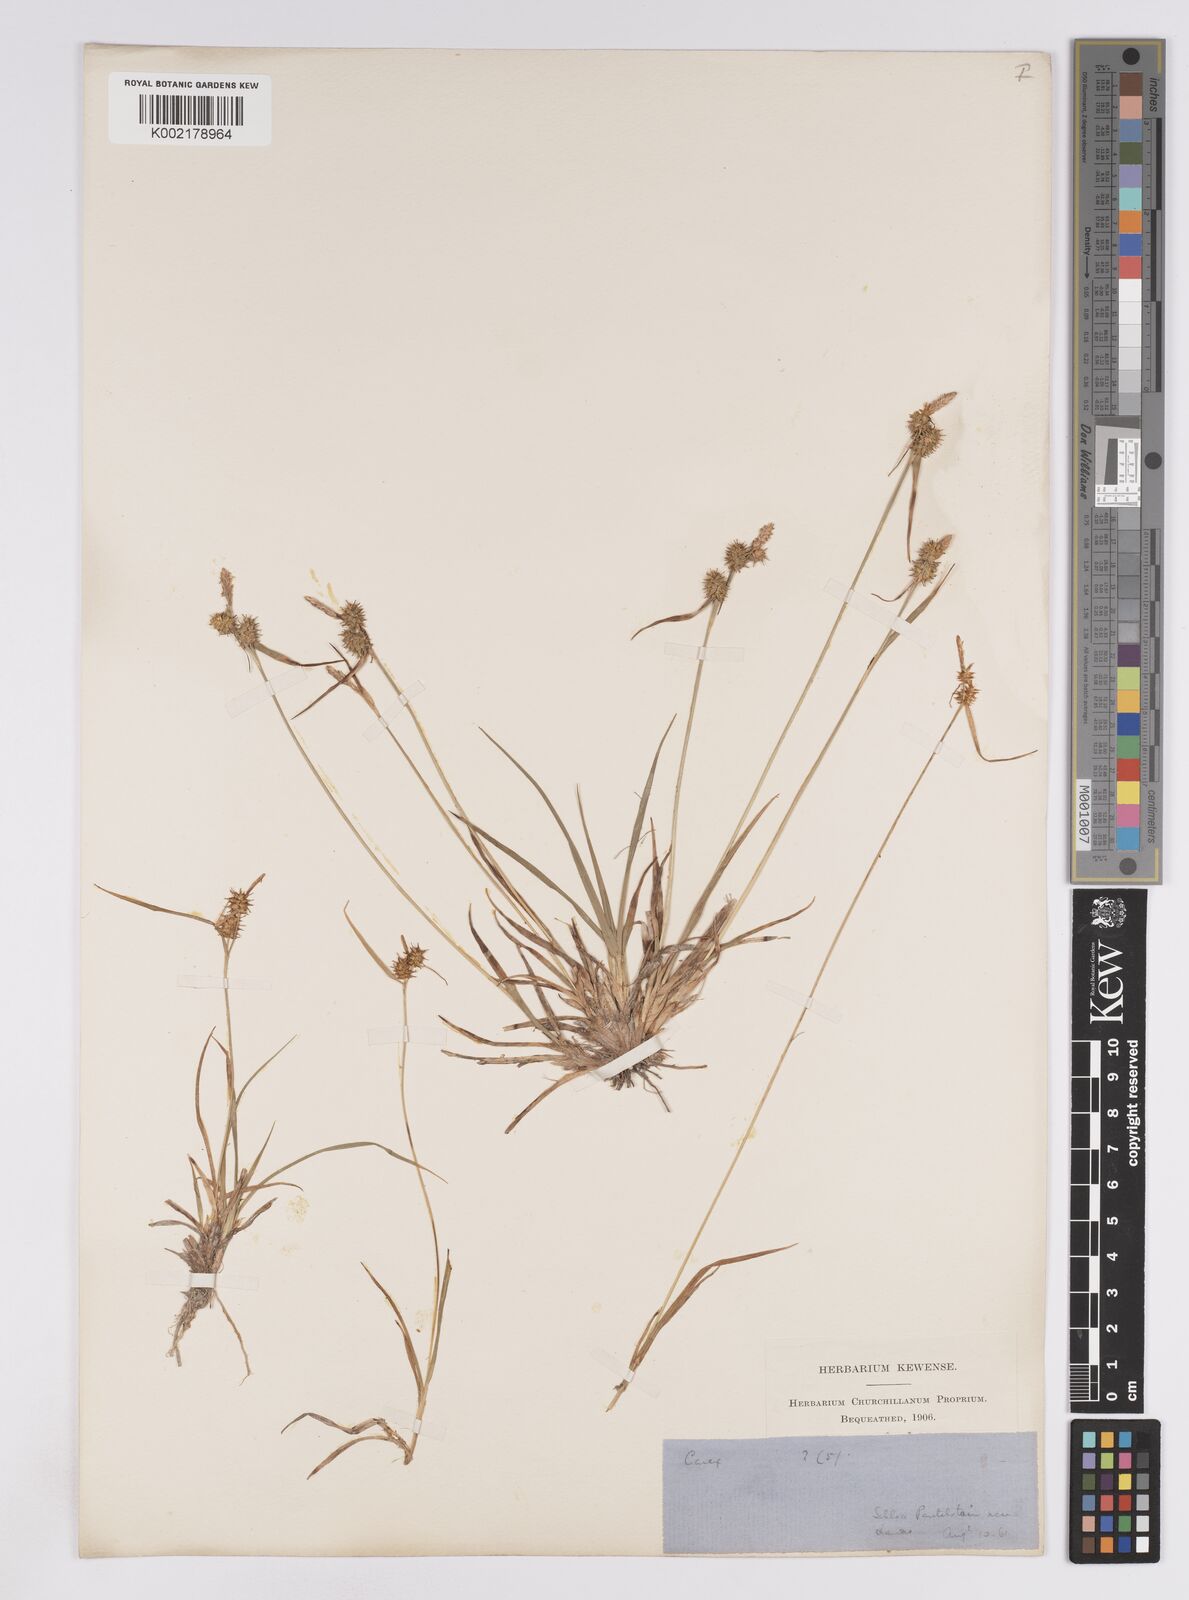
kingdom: Plantae
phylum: Tracheophyta
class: Liliopsida
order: Poales
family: Cyperaceae
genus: Carex
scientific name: Carex lepidocarpa
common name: Long-stalked yellow-sedge
